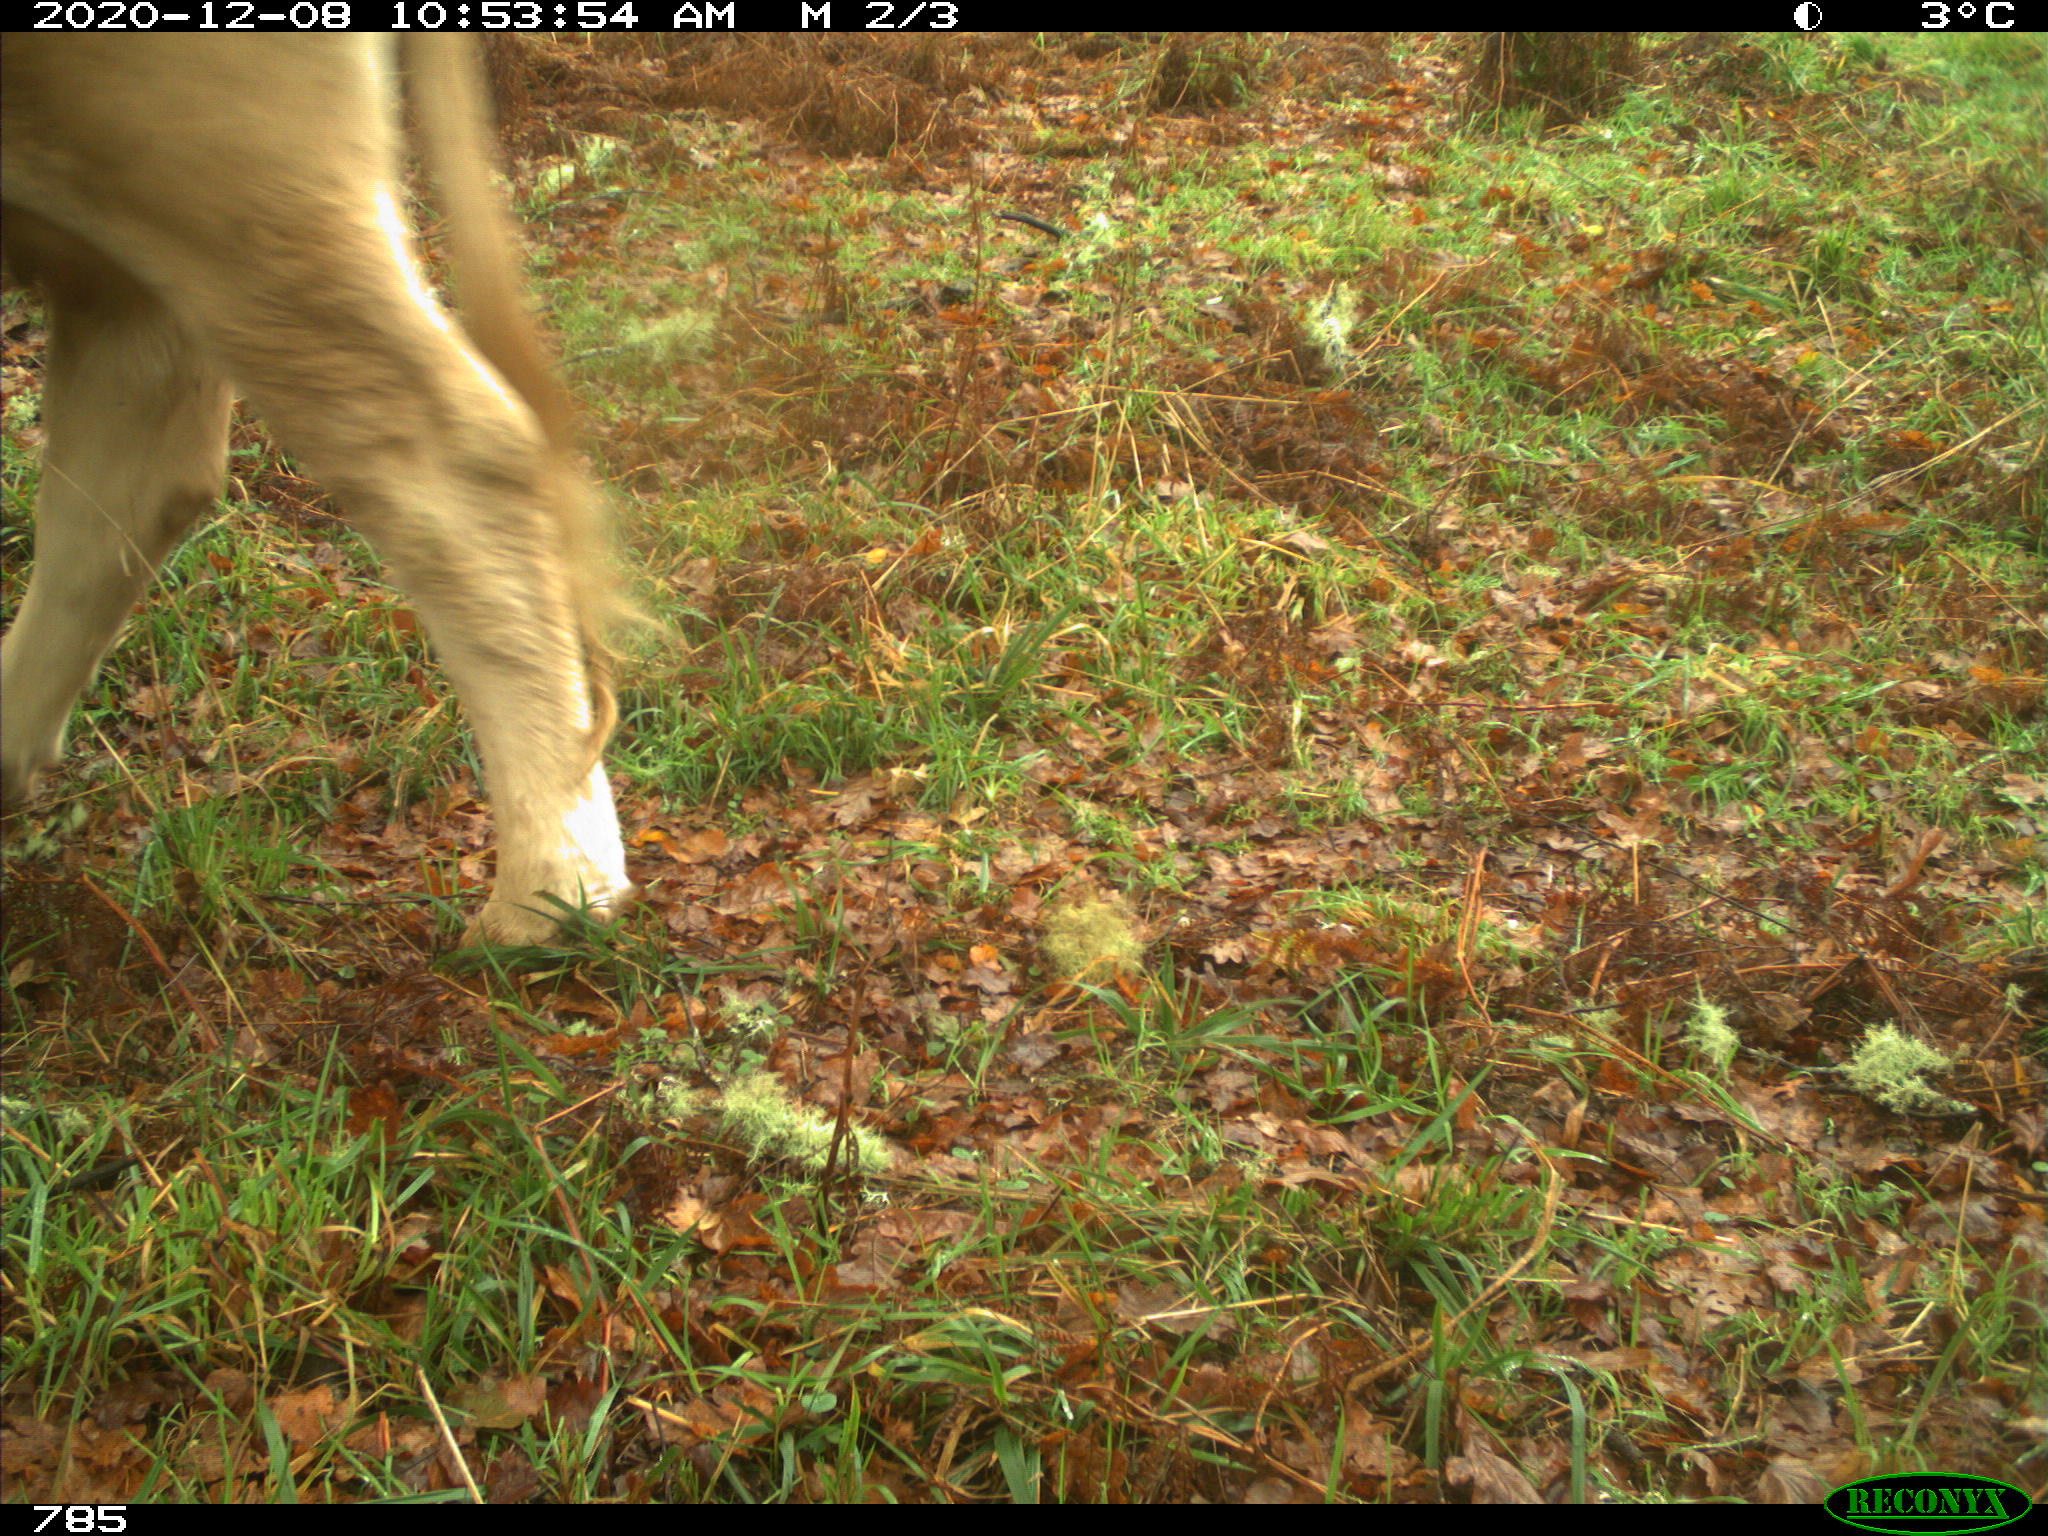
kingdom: Animalia
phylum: Chordata
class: Mammalia
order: Artiodactyla
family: Bovidae
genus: Bos
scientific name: Bos taurus
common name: Domesticated cattle
